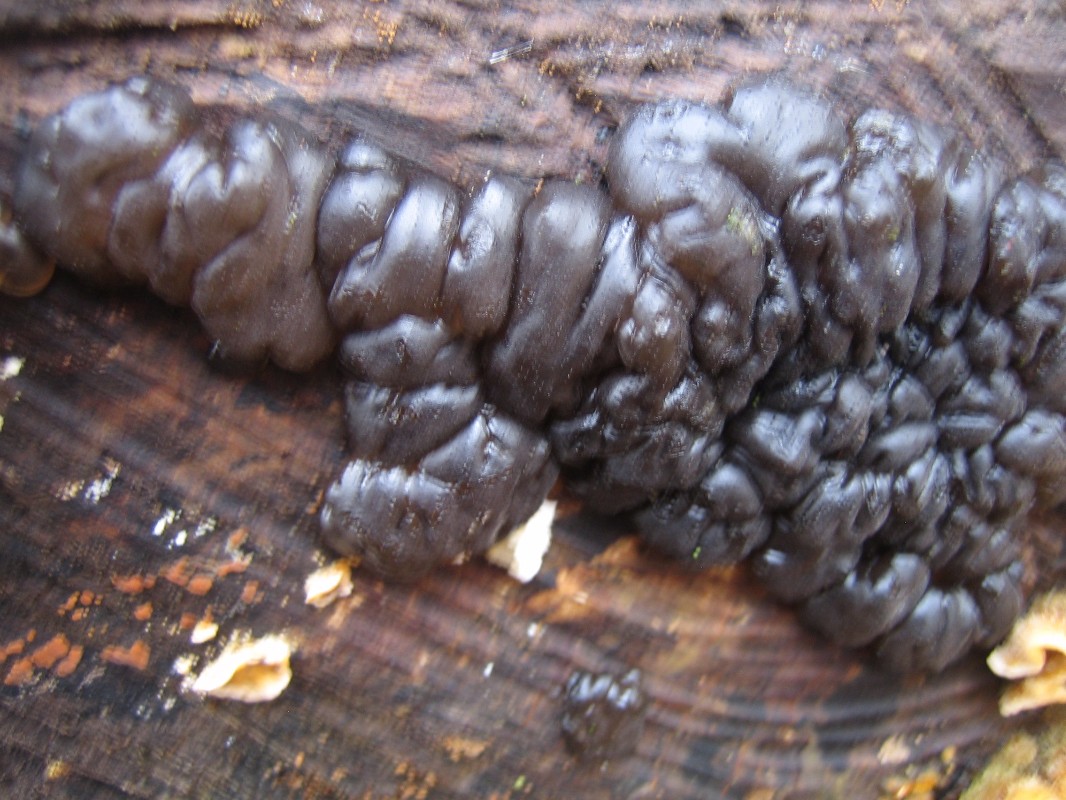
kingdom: Fungi
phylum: Basidiomycota
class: Agaricomycetes
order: Auriculariales
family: Auriculariaceae
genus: Exidia
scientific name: Exidia nigricans
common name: almindelig bævretop
